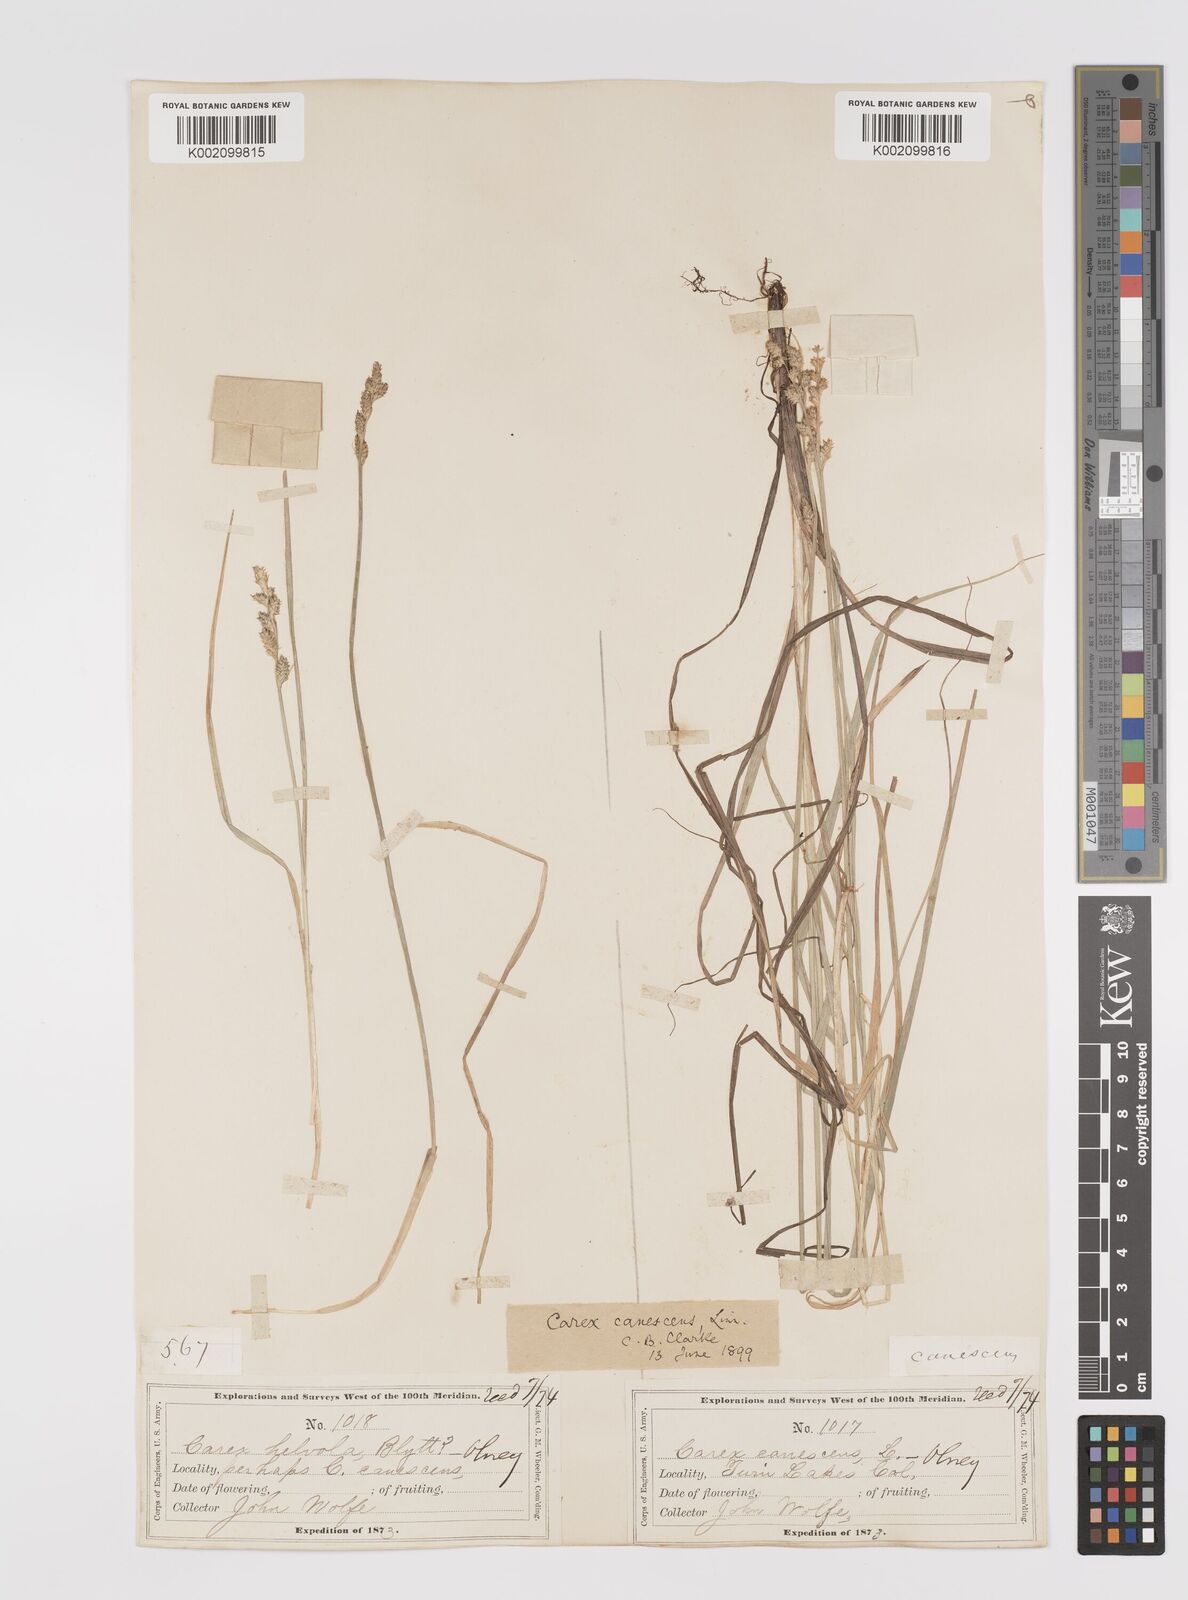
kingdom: Plantae
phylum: Tracheophyta
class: Liliopsida
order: Poales
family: Cyperaceae
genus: Carex
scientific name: Carex curta
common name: White sedge
